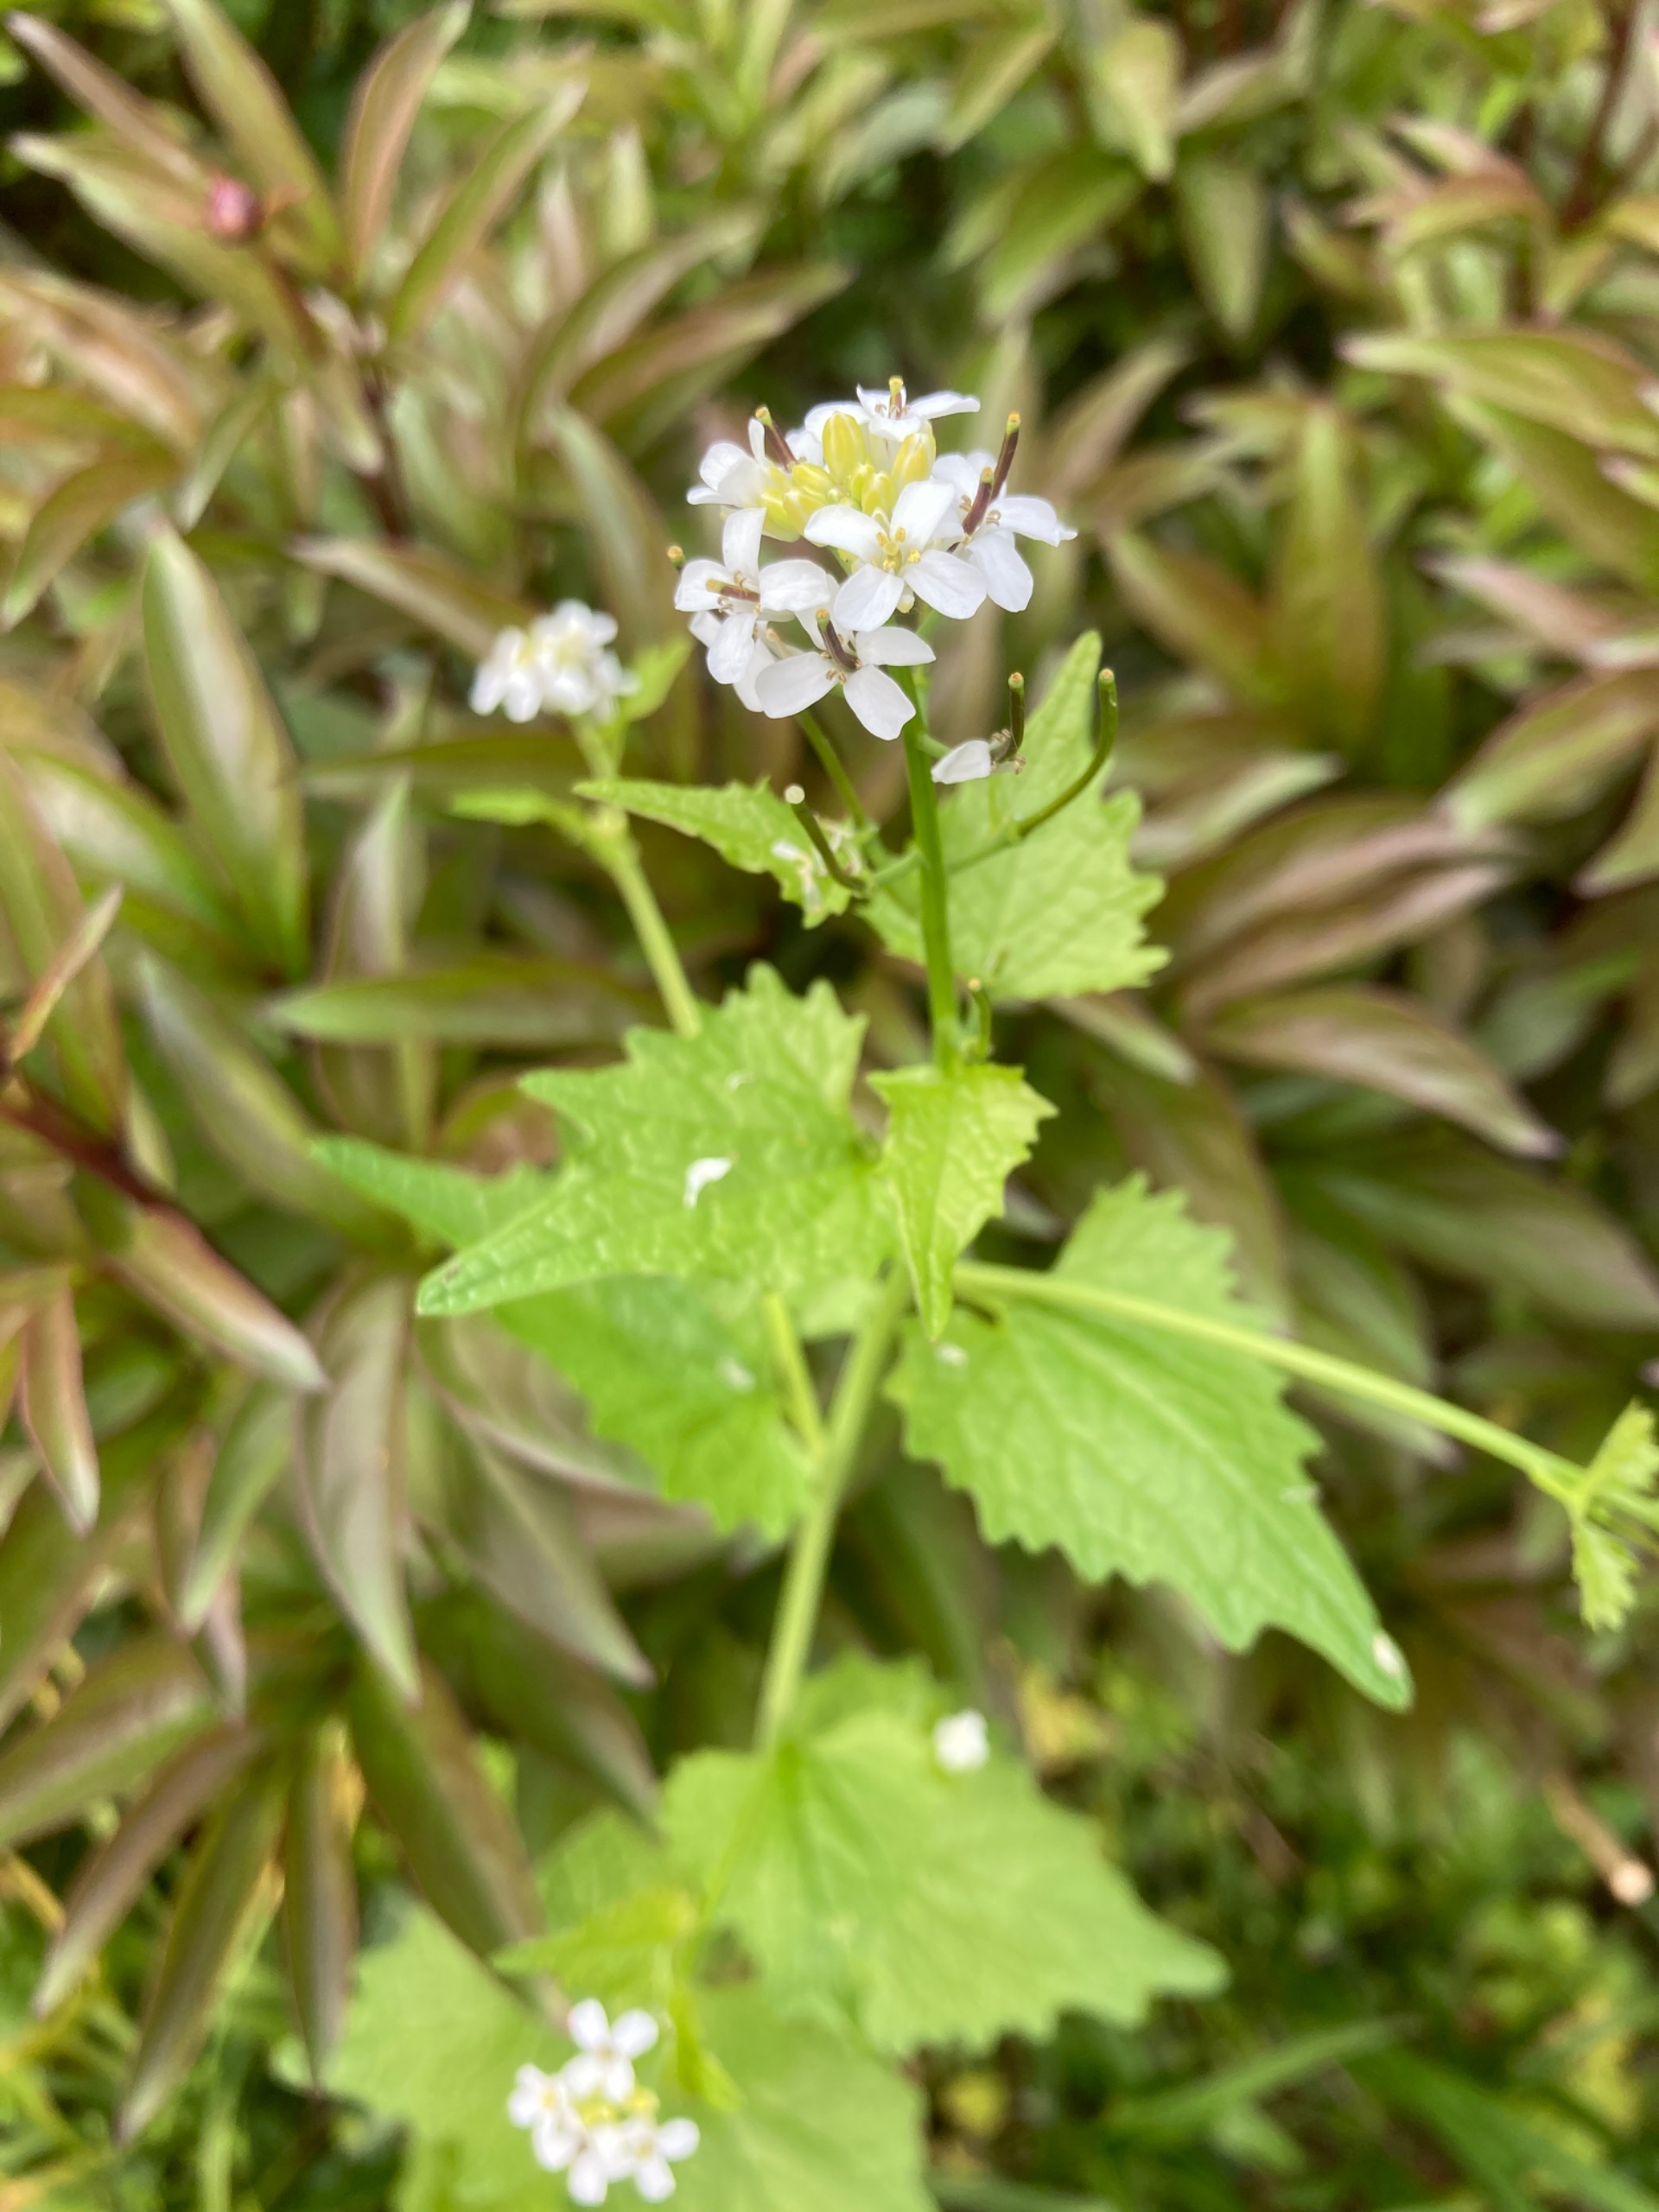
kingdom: Plantae
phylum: Tracheophyta
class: Magnoliopsida
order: Brassicales
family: Brassicaceae
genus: Alliaria
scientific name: Alliaria petiolata
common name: Løgkarse
